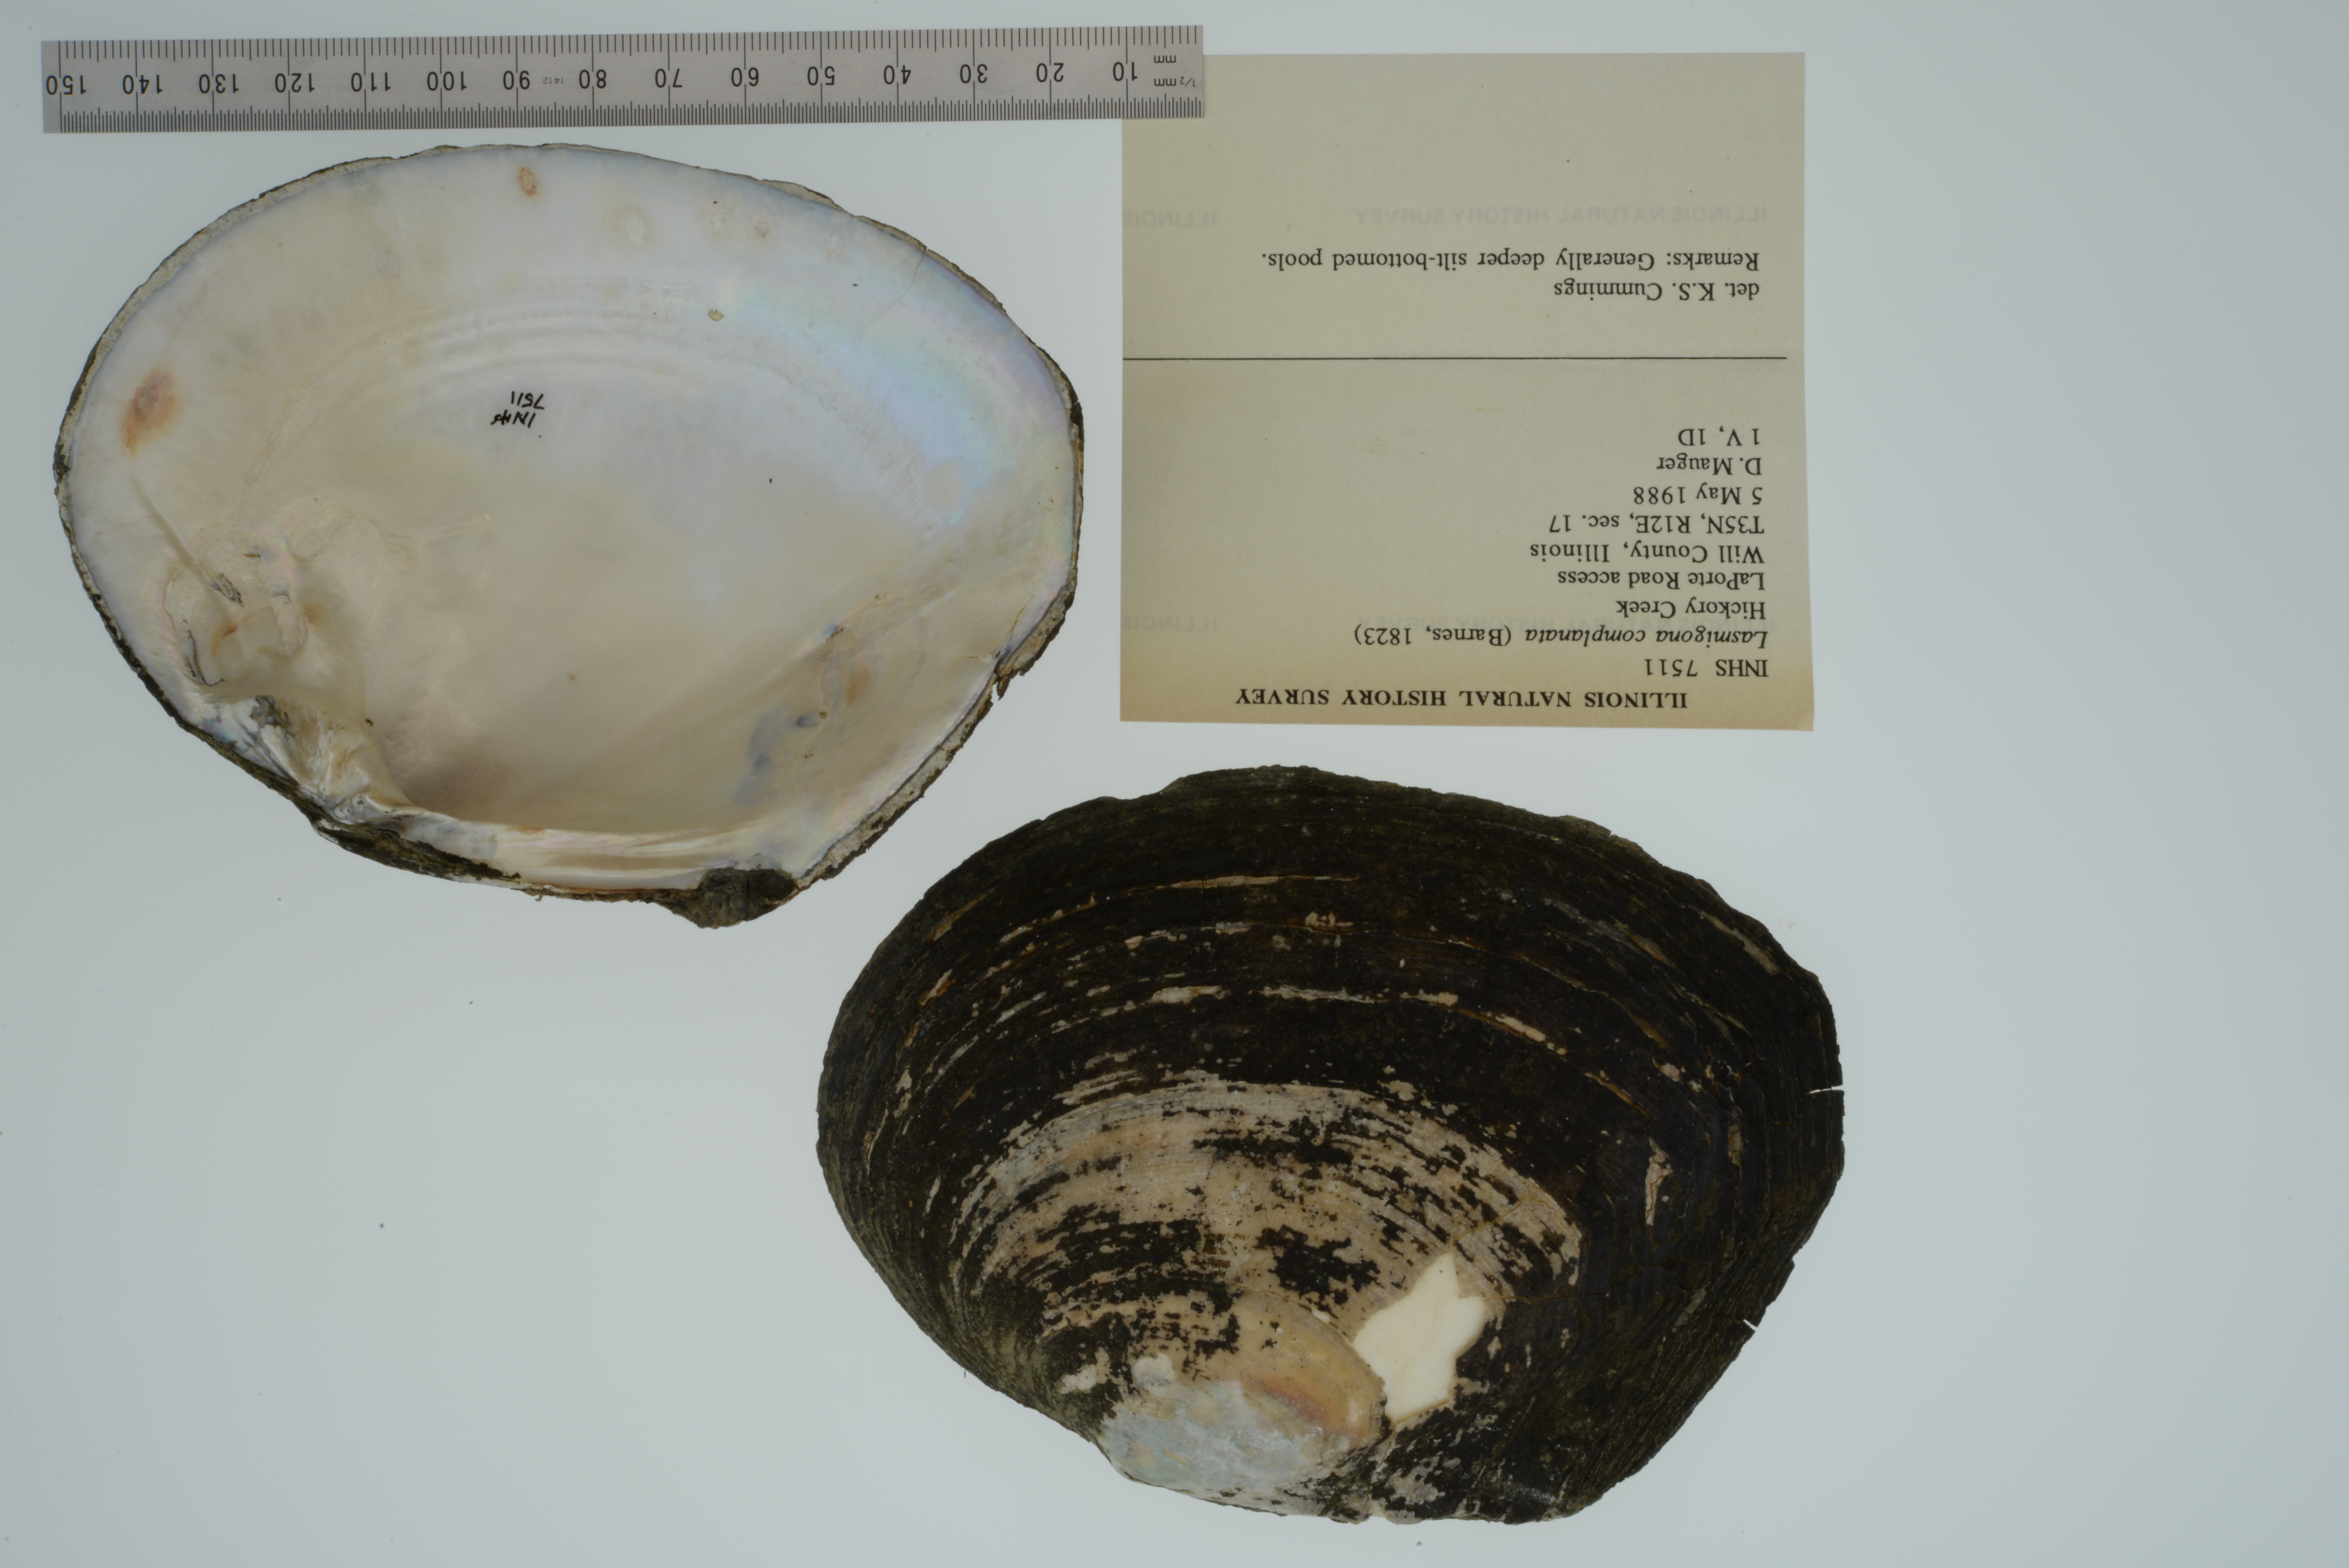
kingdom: Animalia
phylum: Mollusca
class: Bivalvia
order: Unionida
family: Unionidae
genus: Lasmigona
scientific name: Lasmigona complanata
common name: White heelsplitter
